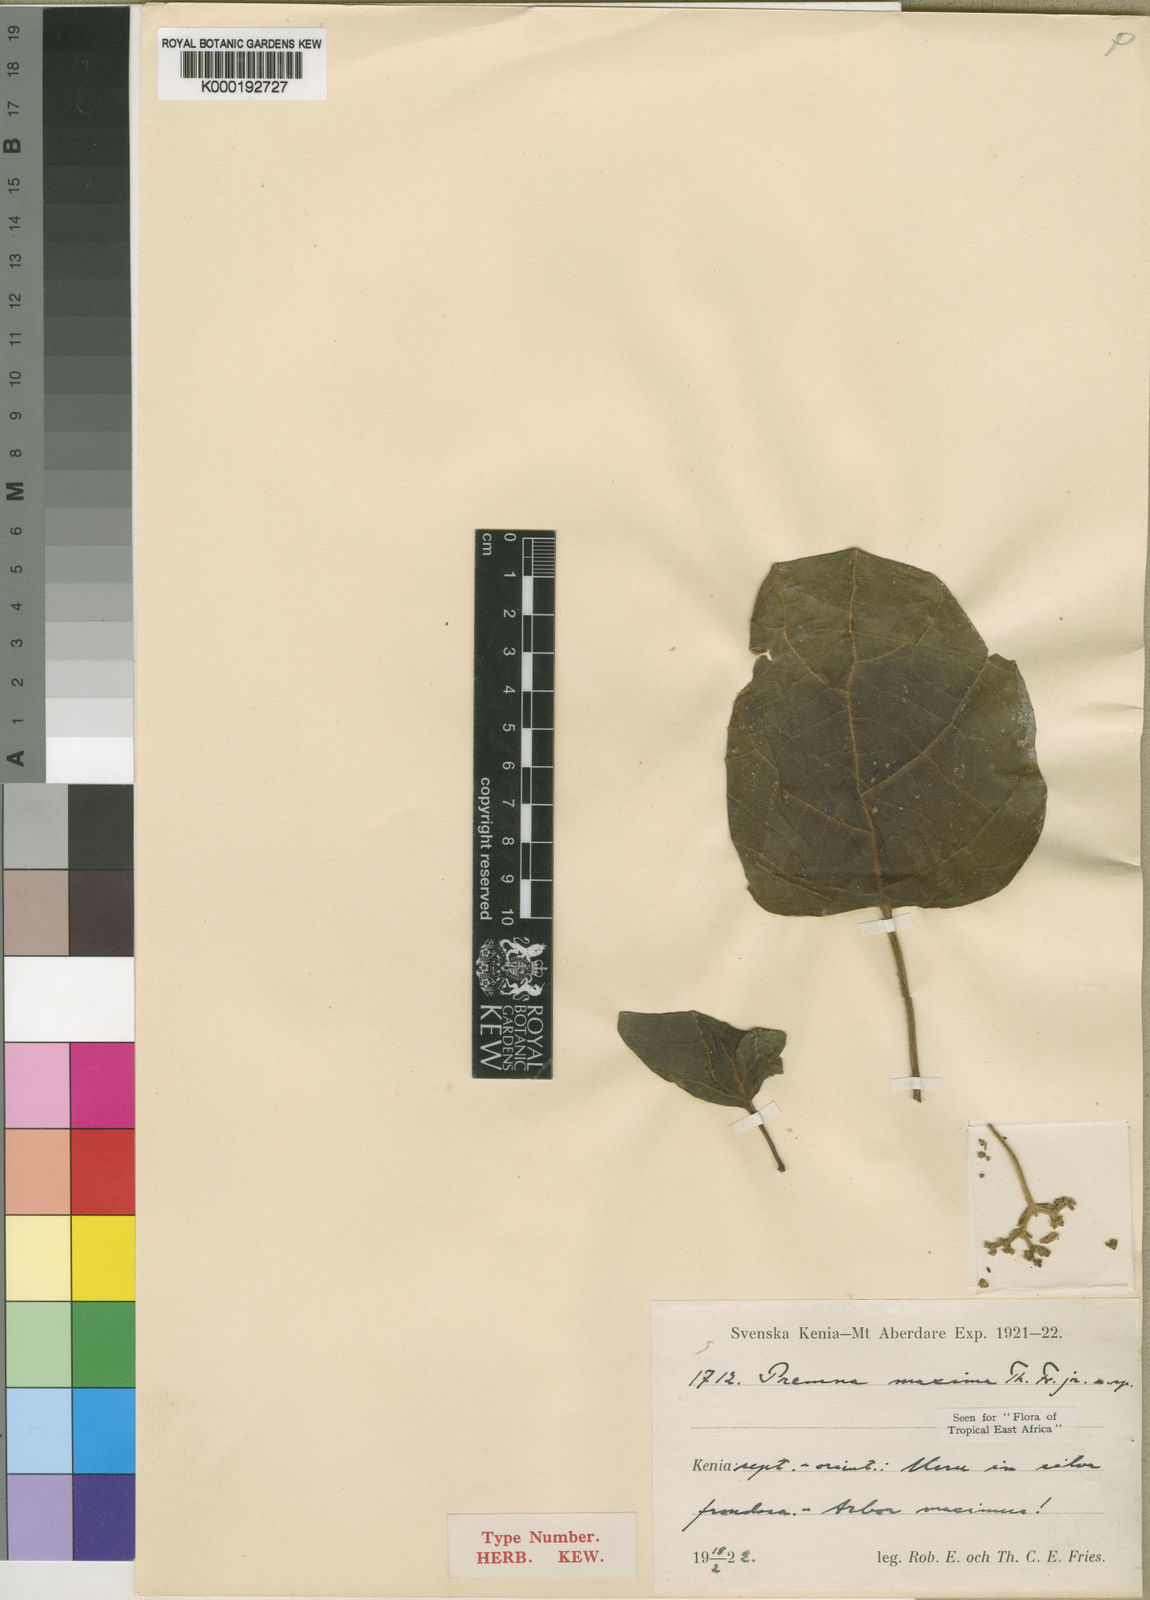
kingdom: Plantae
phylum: Tracheophyta
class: Magnoliopsida
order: Lamiales
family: Lamiaceae
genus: Premna
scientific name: Premna maxima
